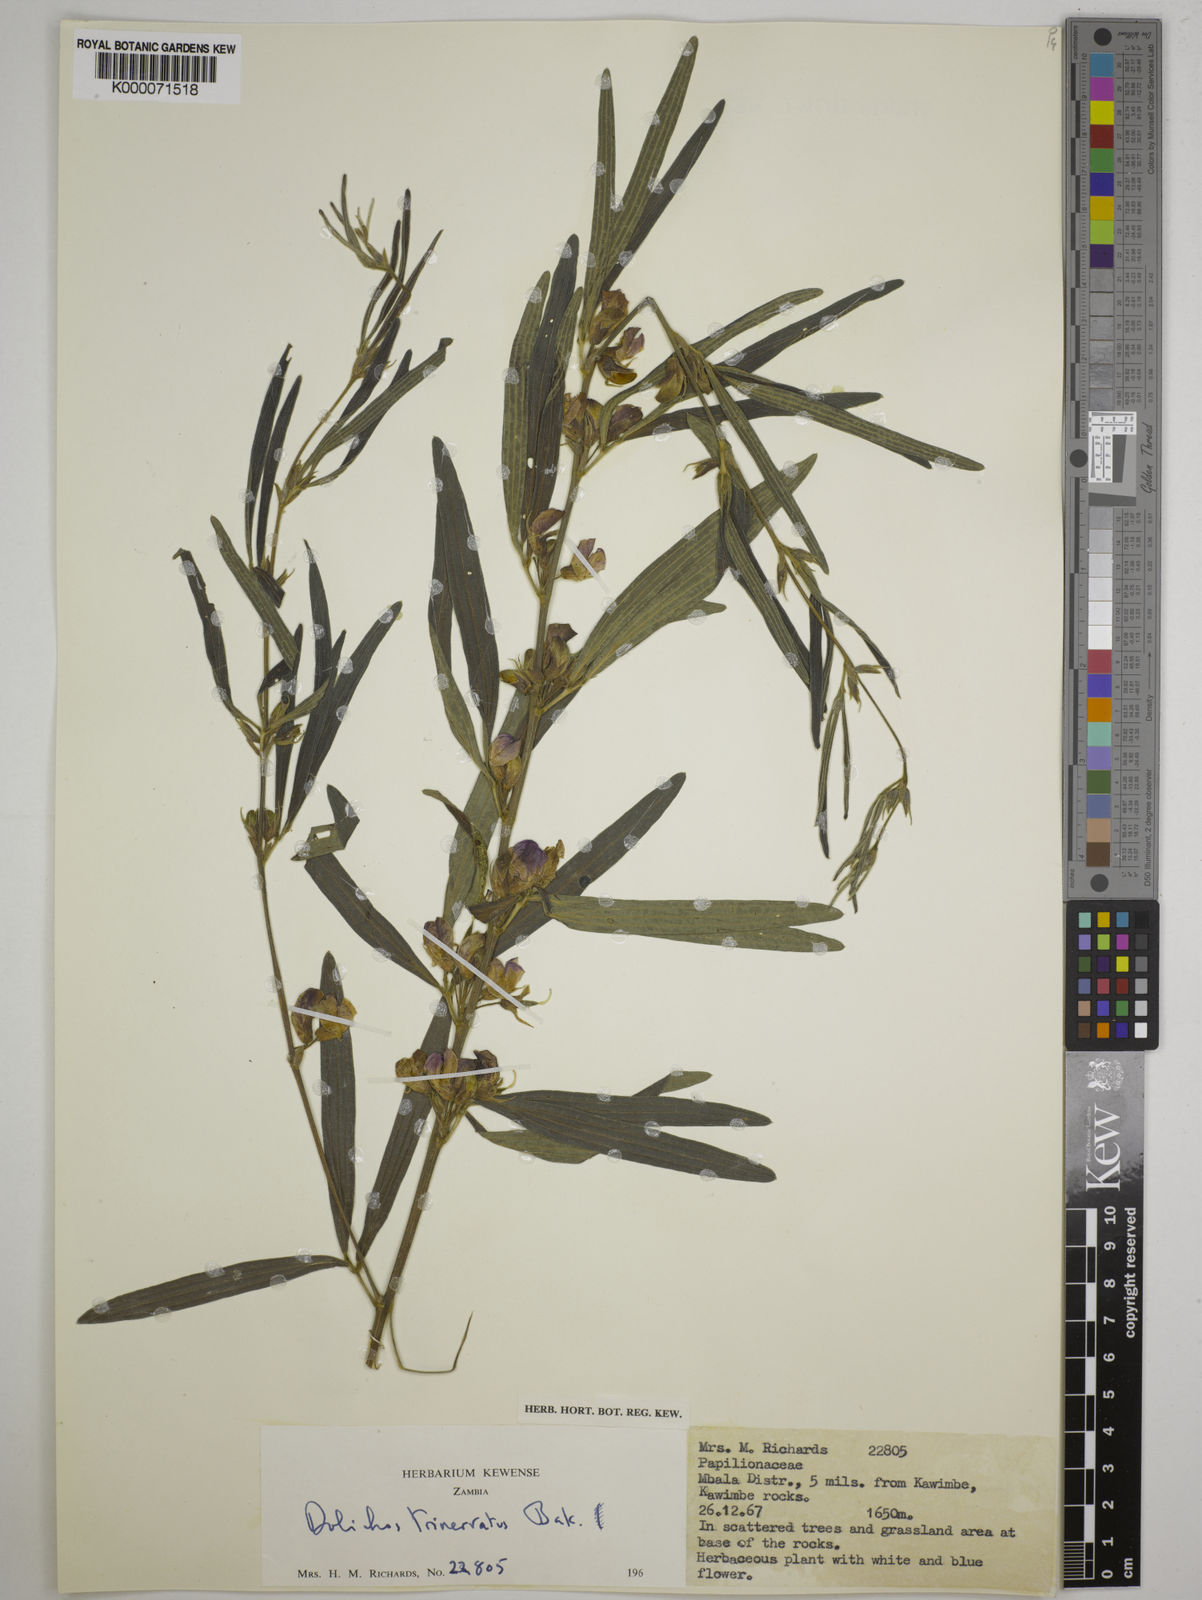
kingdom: Plantae
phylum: Tracheophyta
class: Magnoliopsida
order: Fabales
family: Fabaceae
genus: Dolichos
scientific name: Dolichos trinervatus
